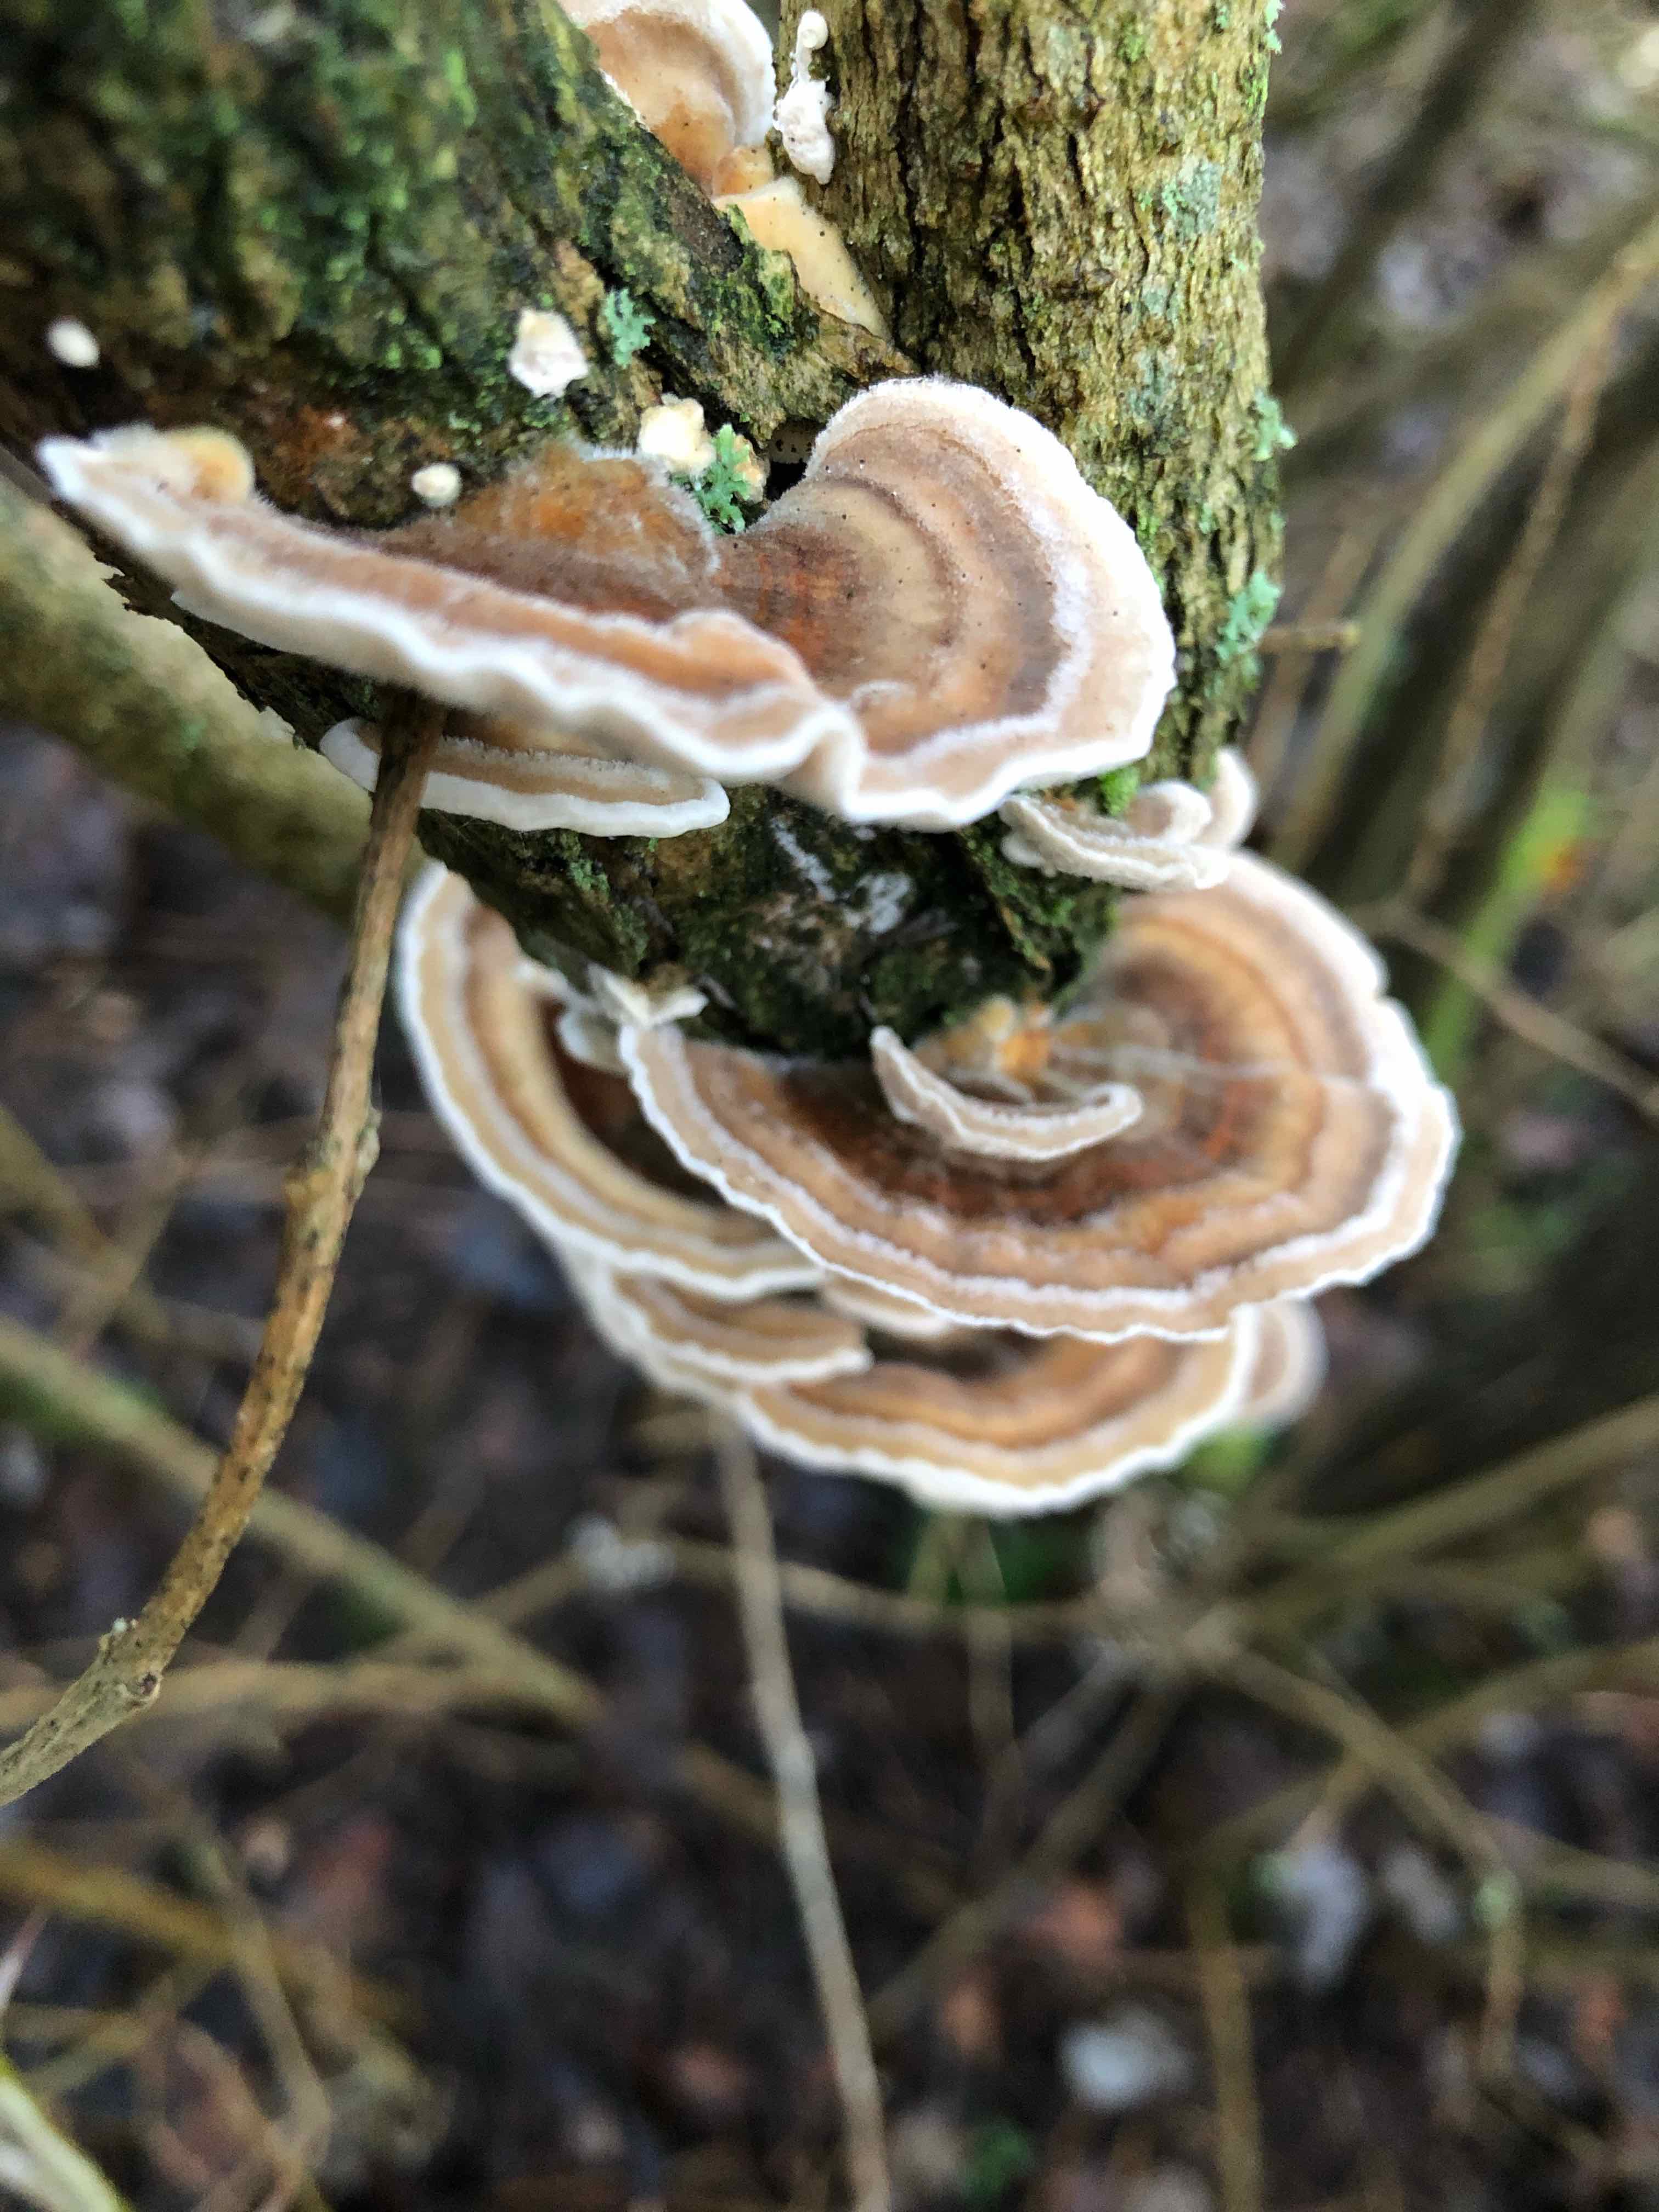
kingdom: Fungi
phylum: Basidiomycota
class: Agaricomycetes
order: Polyporales
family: Polyporaceae
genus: Trametes
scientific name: Trametes versicolor
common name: broget læderporesvamp
